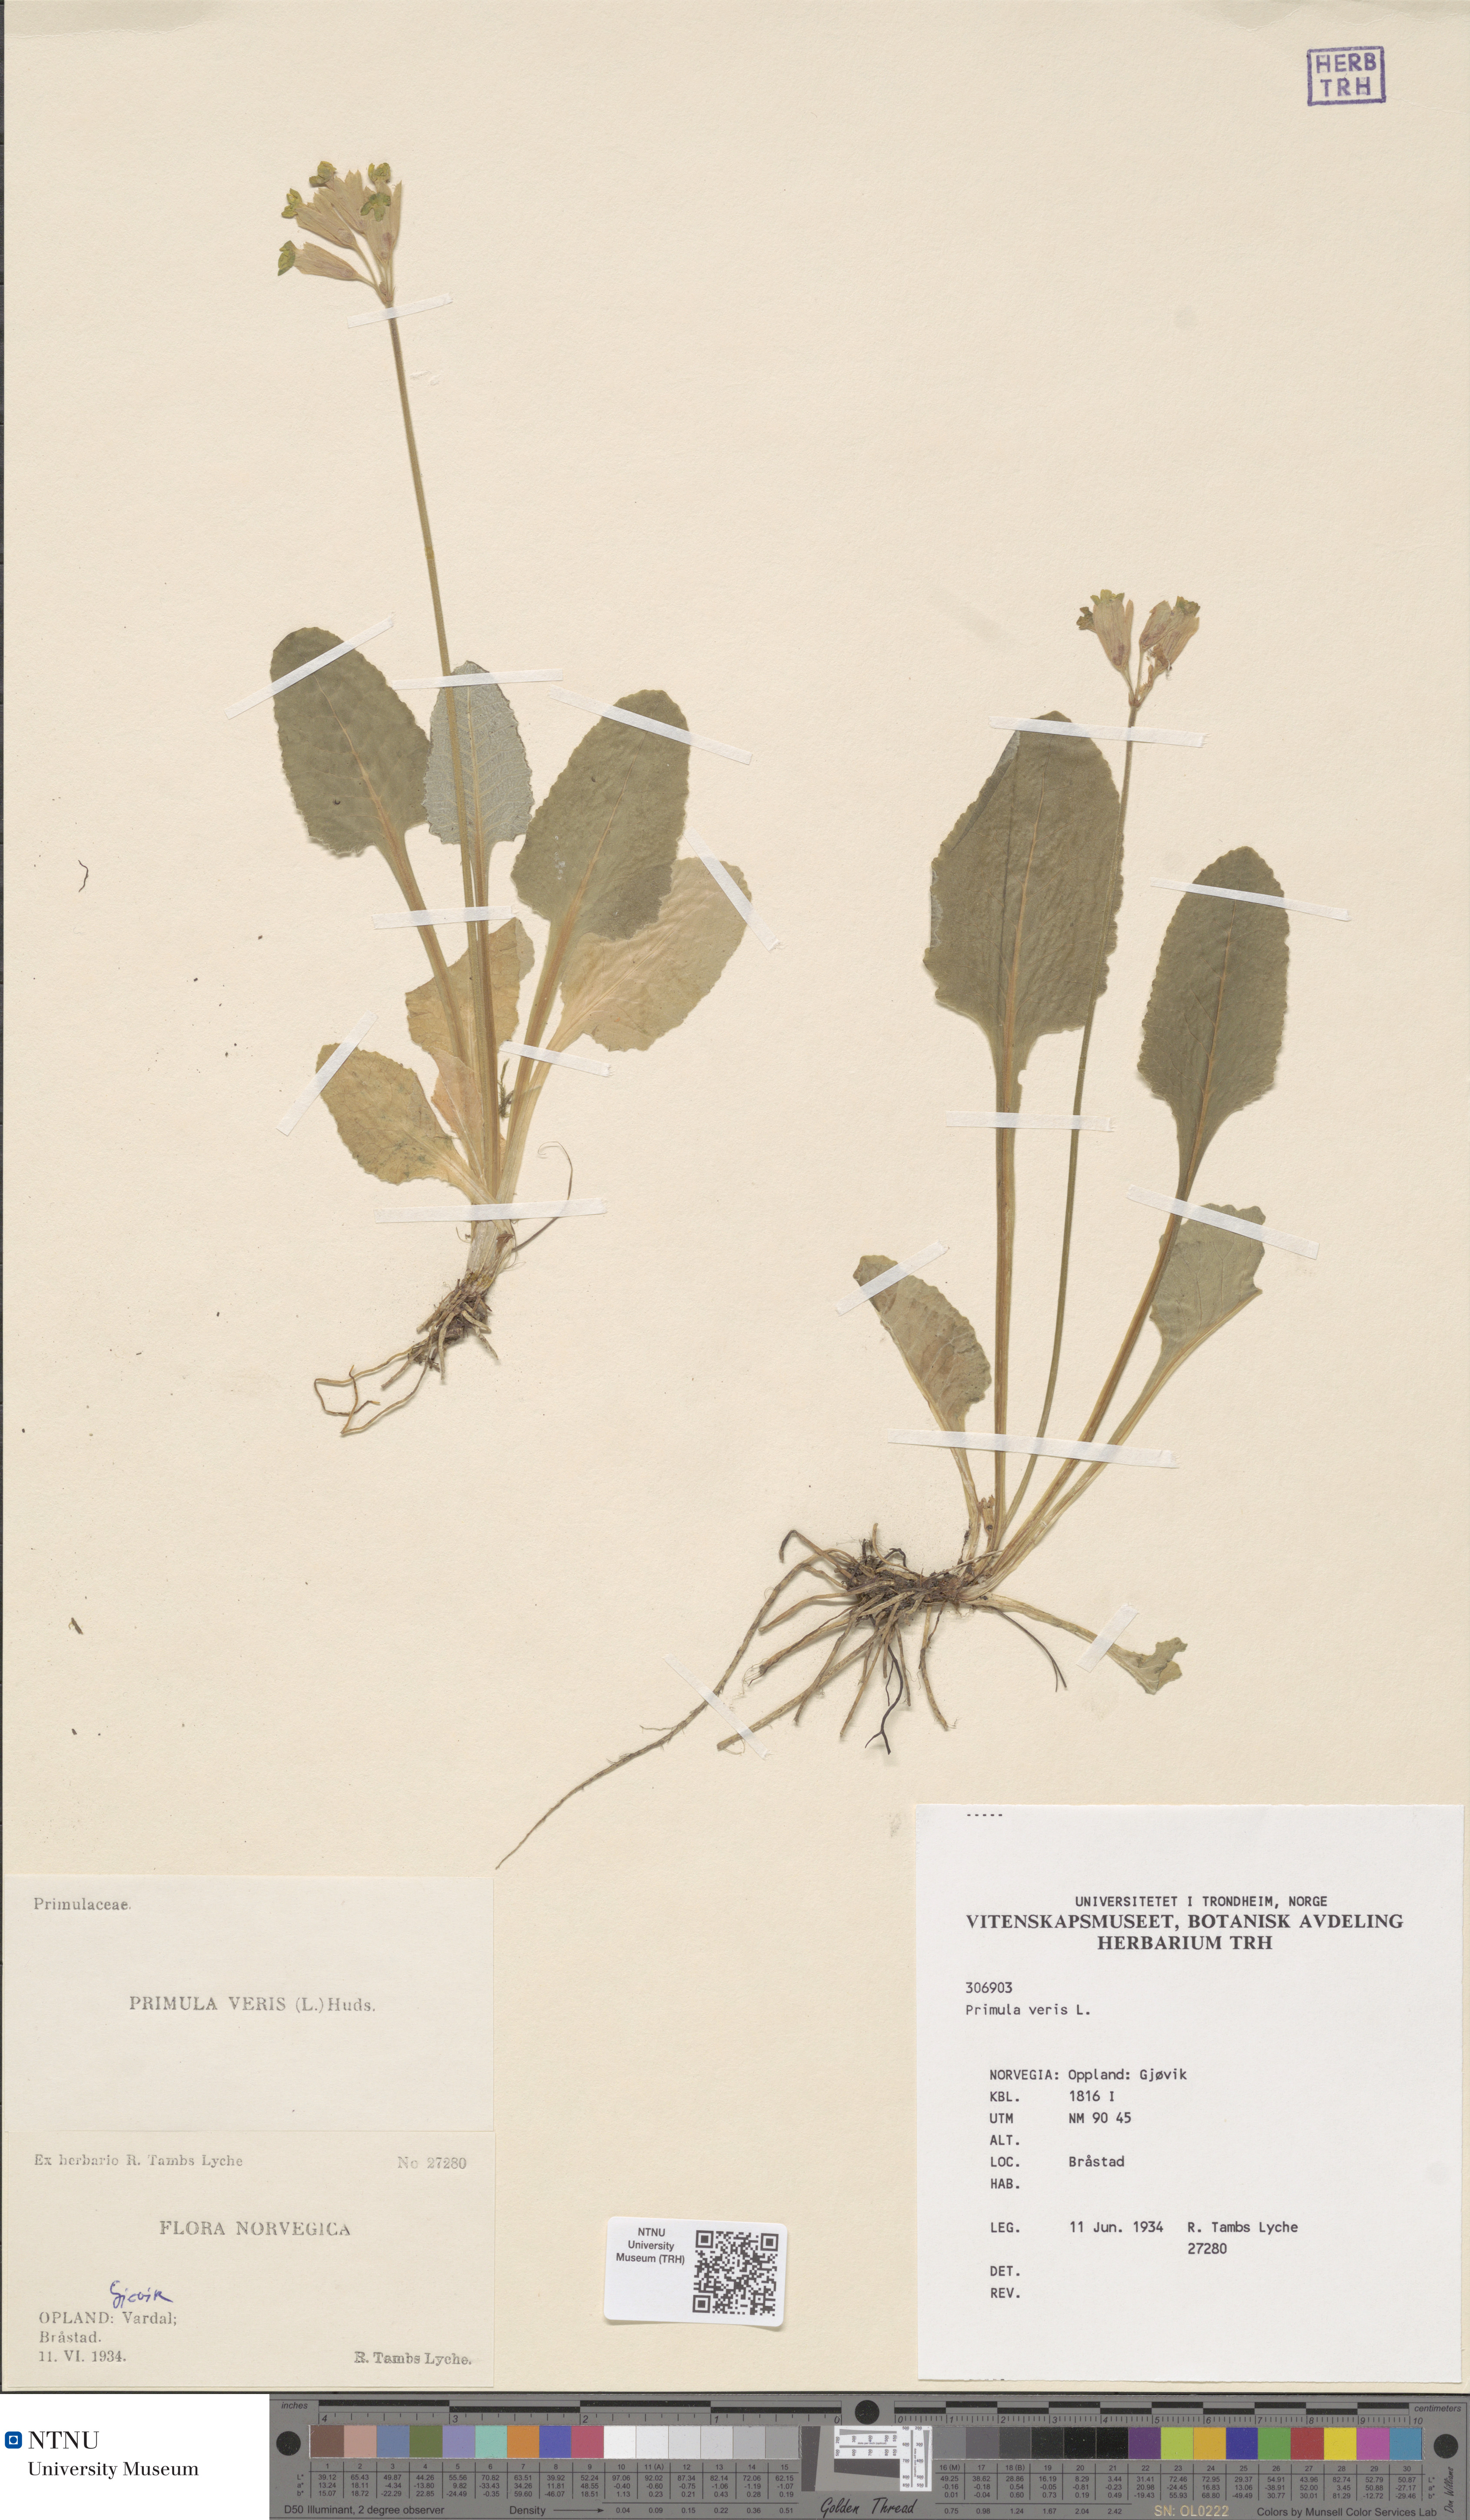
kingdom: Plantae
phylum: Tracheophyta
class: Magnoliopsida
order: Ericales
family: Primulaceae
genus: Primula
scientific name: Primula veris
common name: Cowslip
